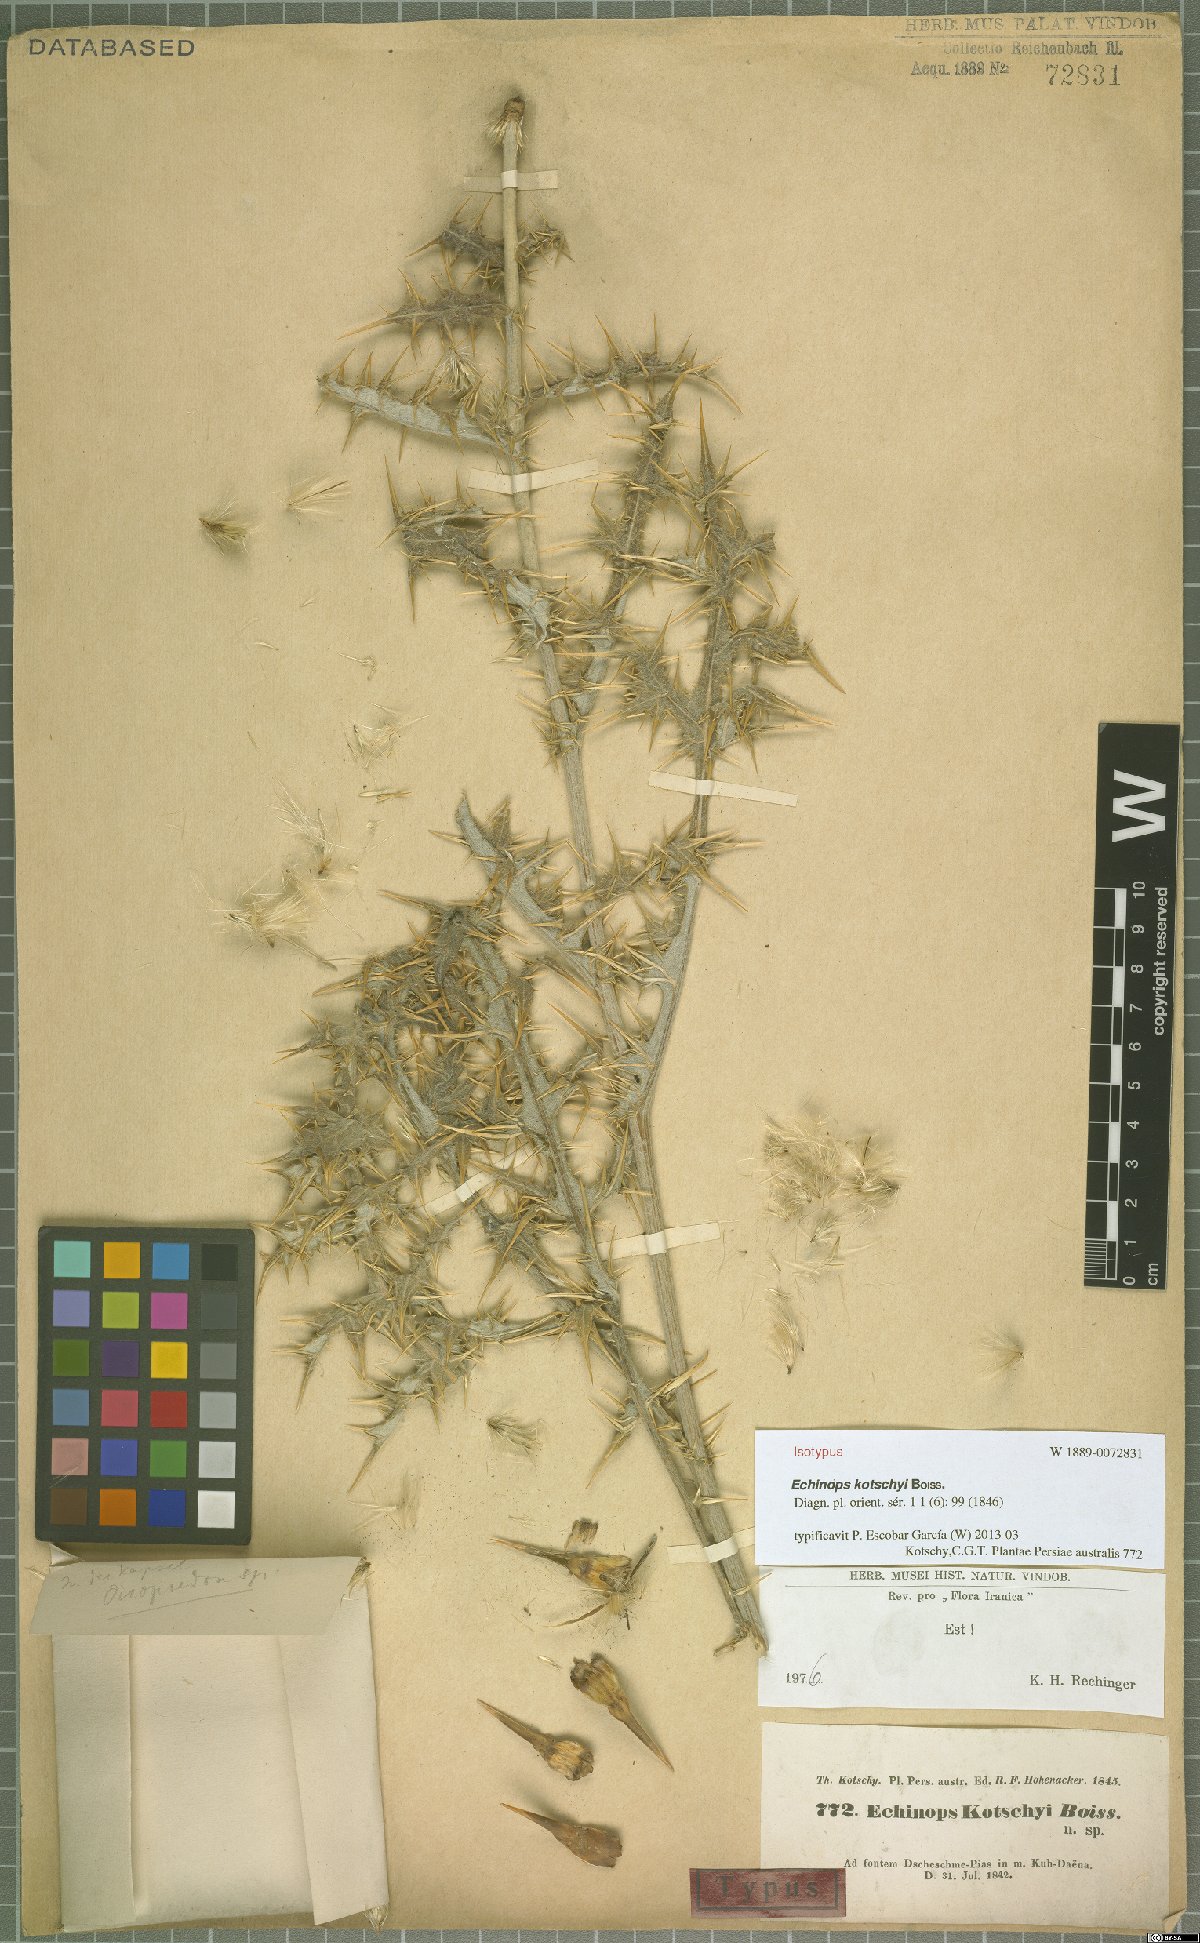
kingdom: Plantae
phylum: Tracheophyta
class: Magnoliopsida
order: Asterales
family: Asteraceae
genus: Echinops
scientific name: Echinops kotschyi
